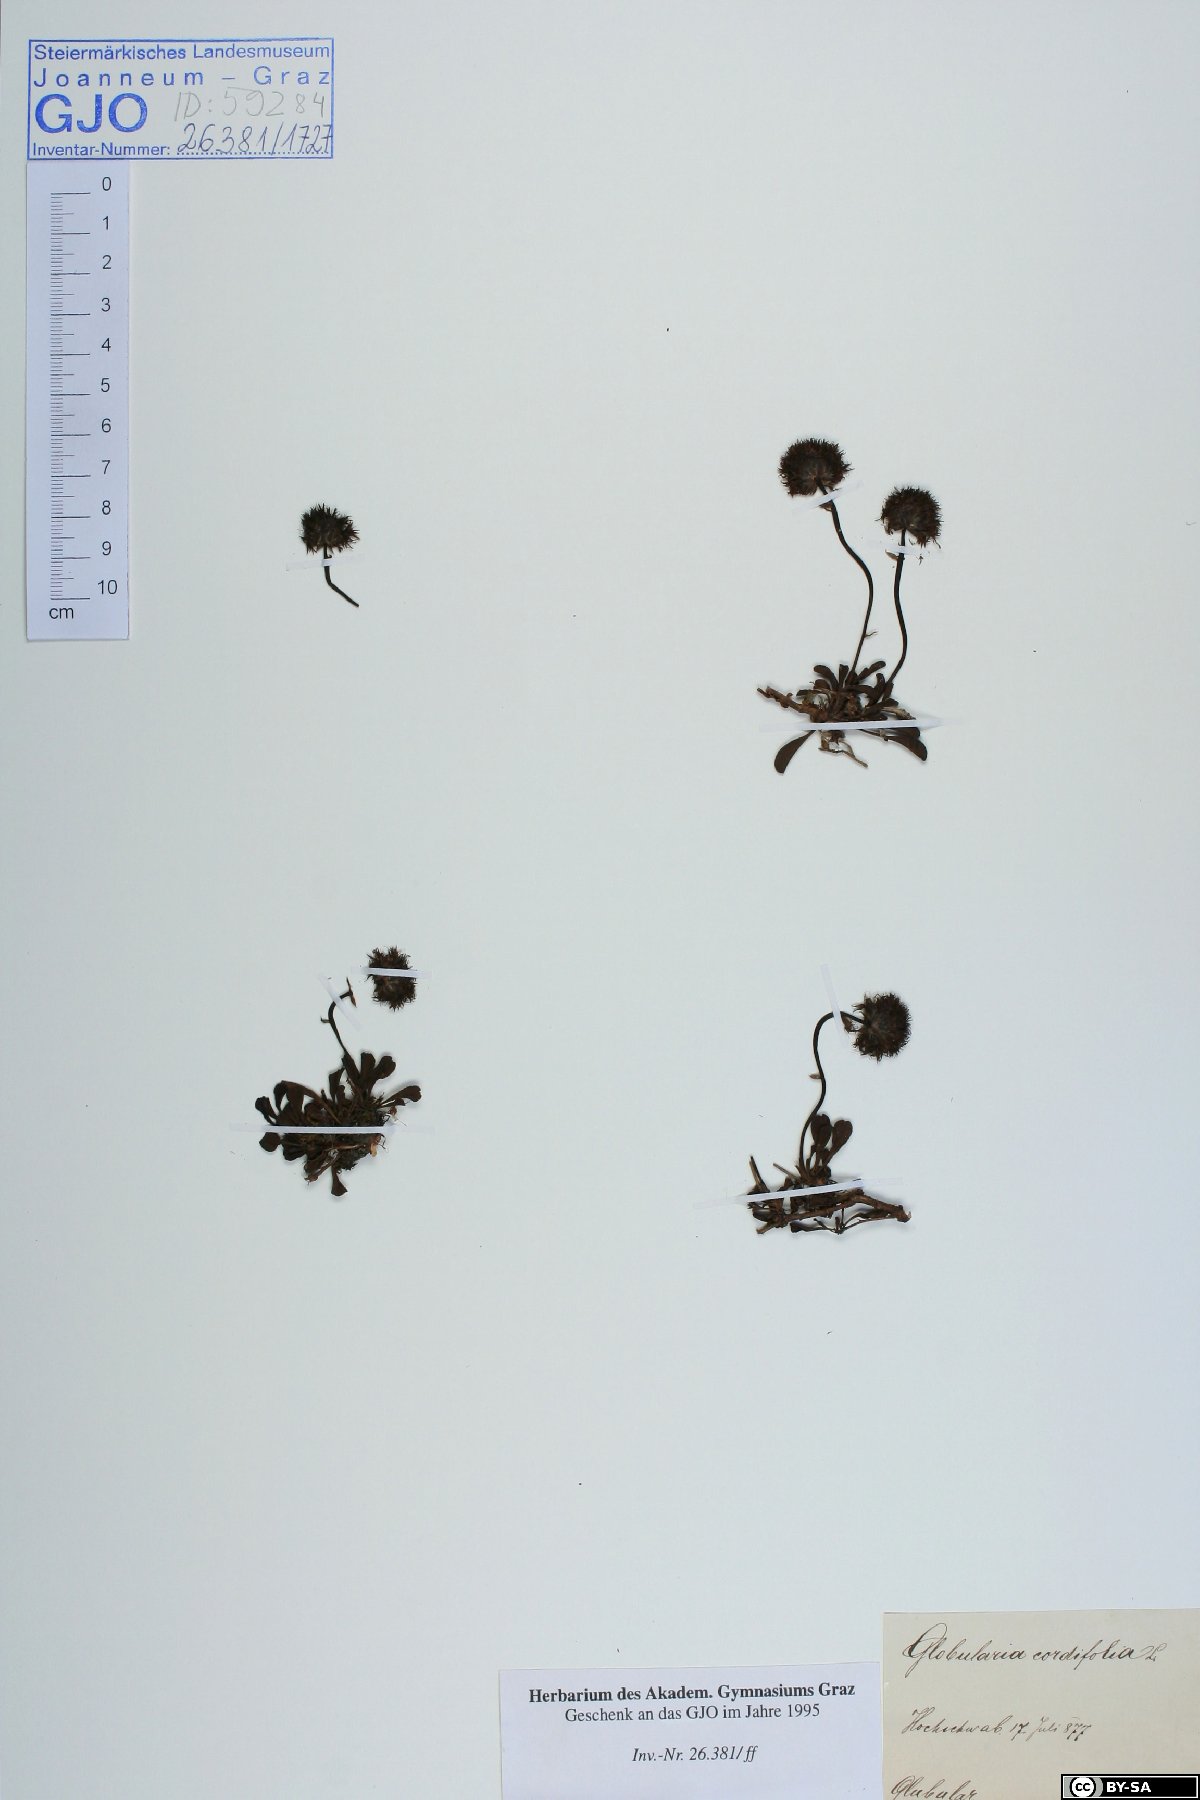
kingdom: Plantae
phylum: Tracheophyta
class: Magnoliopsida
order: Lamiales
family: Plantaginaceae
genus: Globularia
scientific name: Globularia cordifolia
